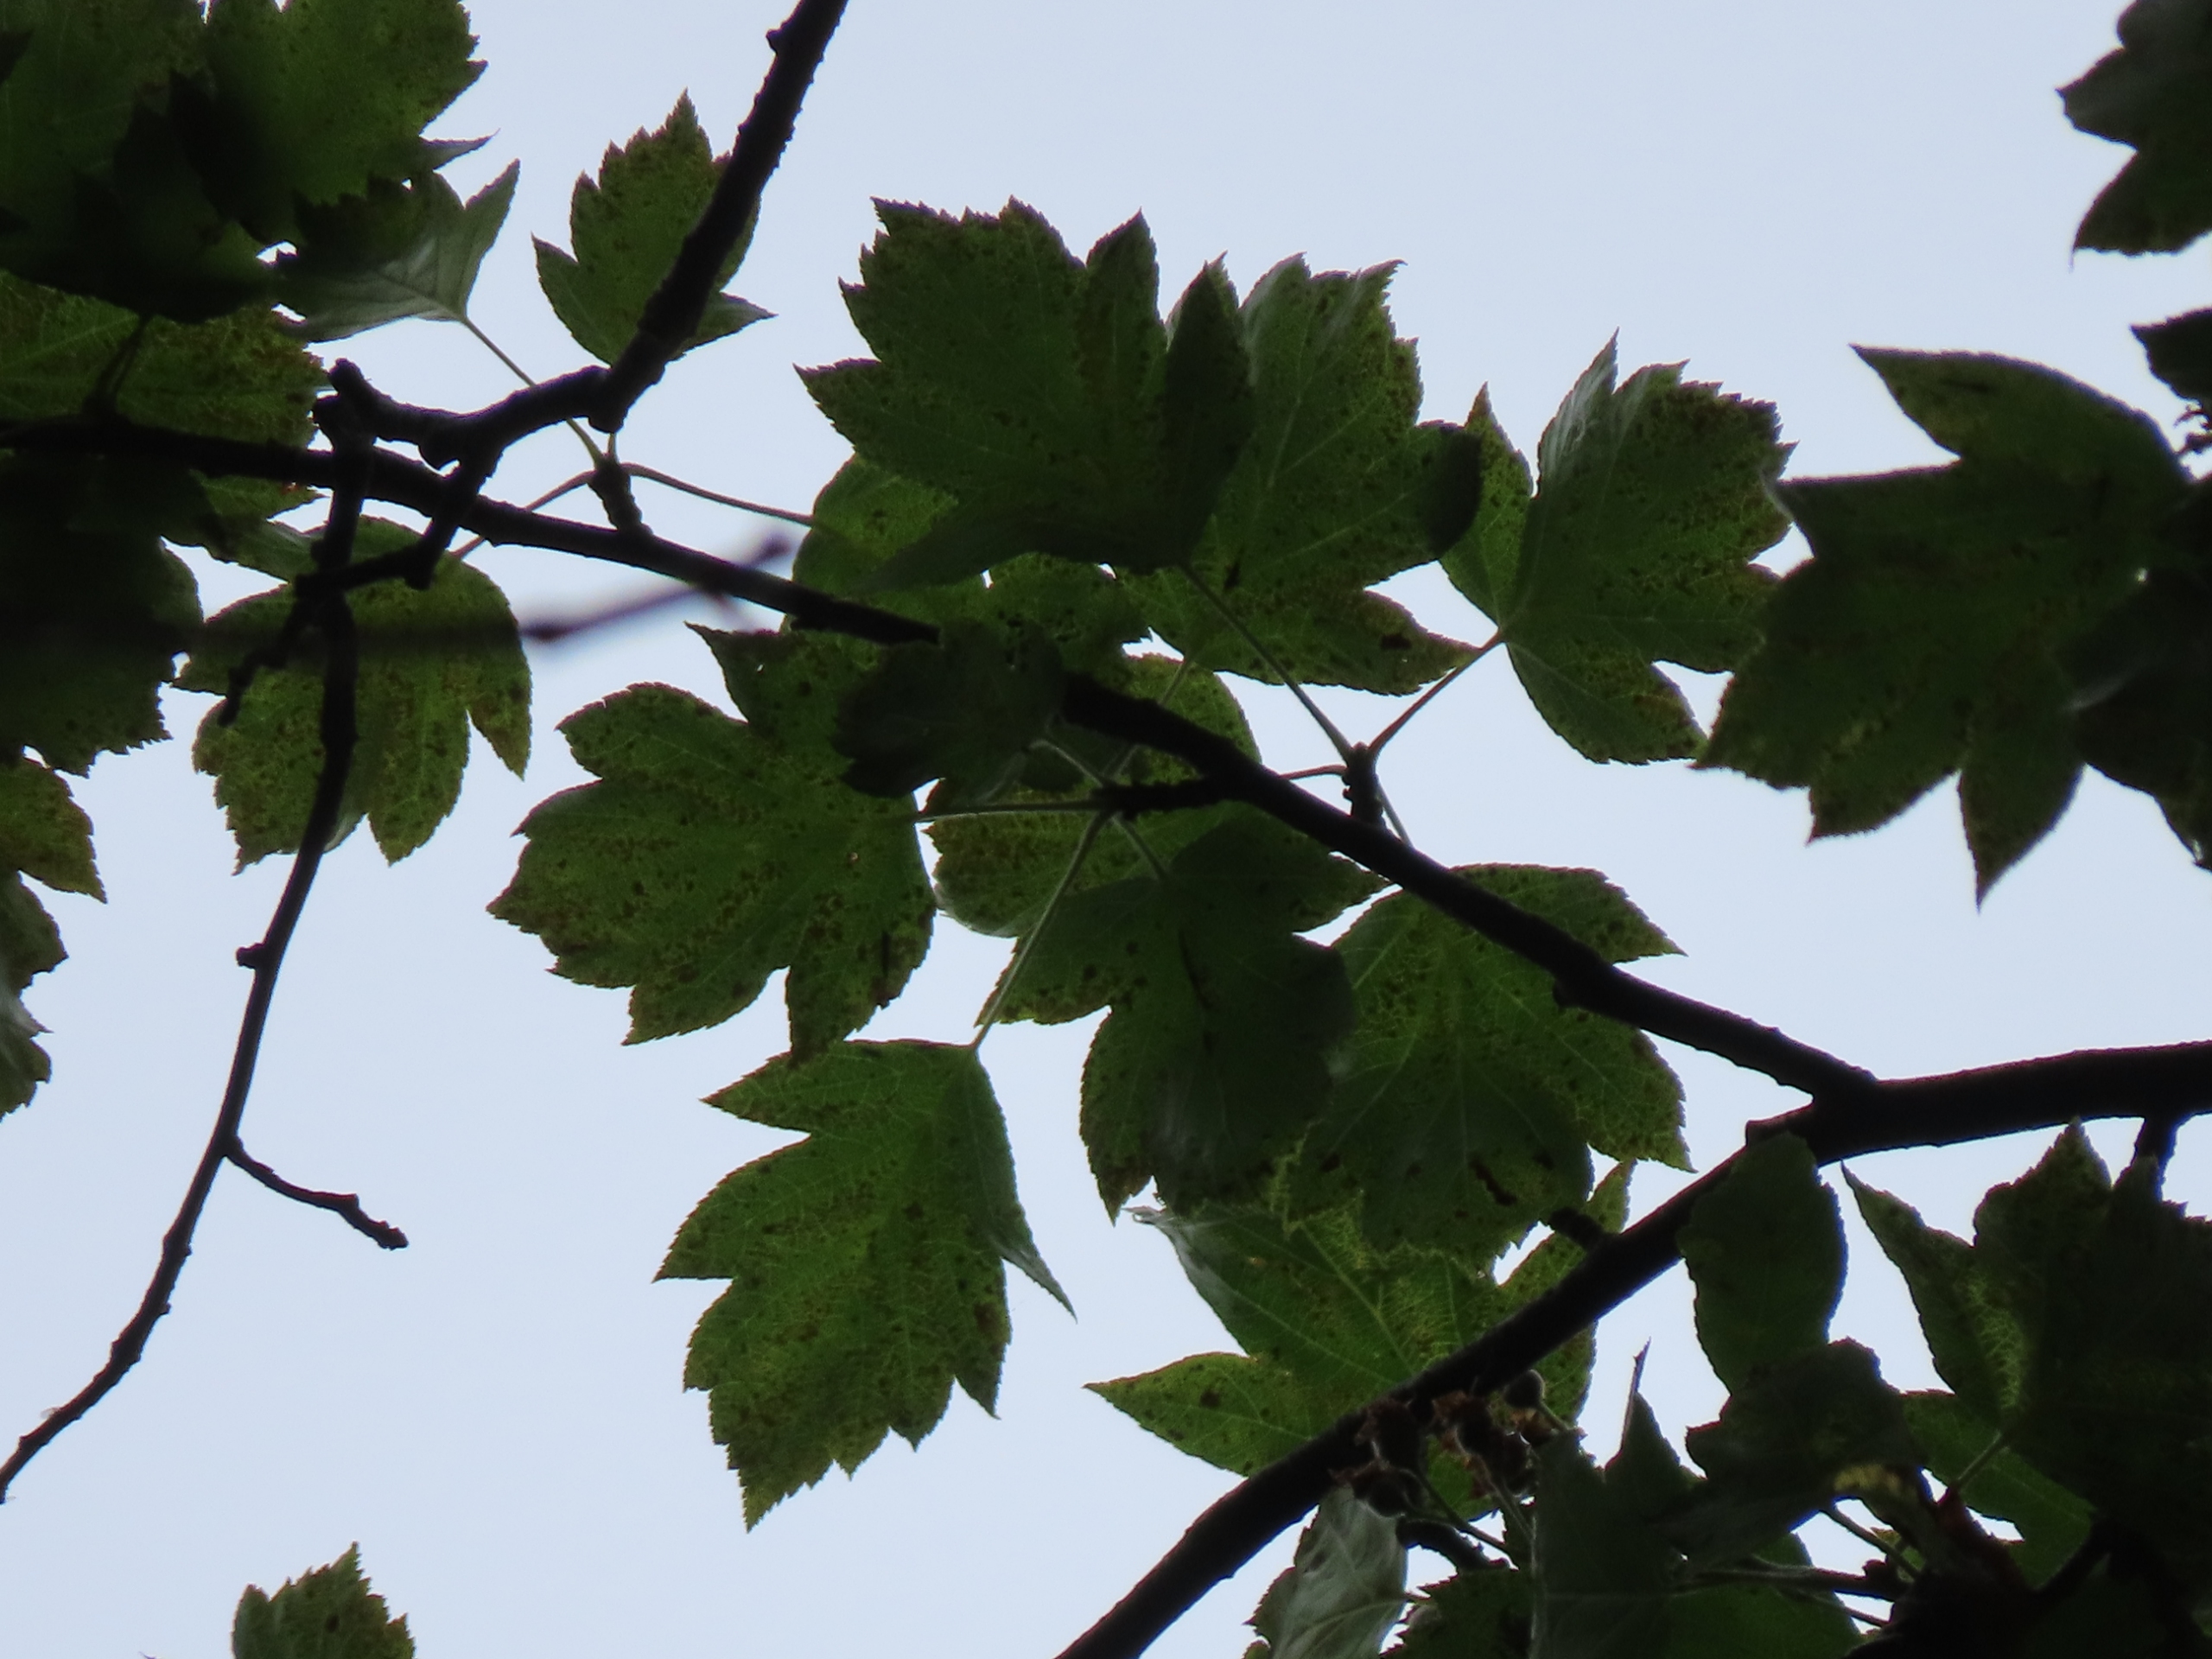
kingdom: Plantae
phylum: Tracheophyta
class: Magnoliopsida
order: Rosales
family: Rosaceae
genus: Torminalis
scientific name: Torminalis glaberrima
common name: Tarmvrid-røn
